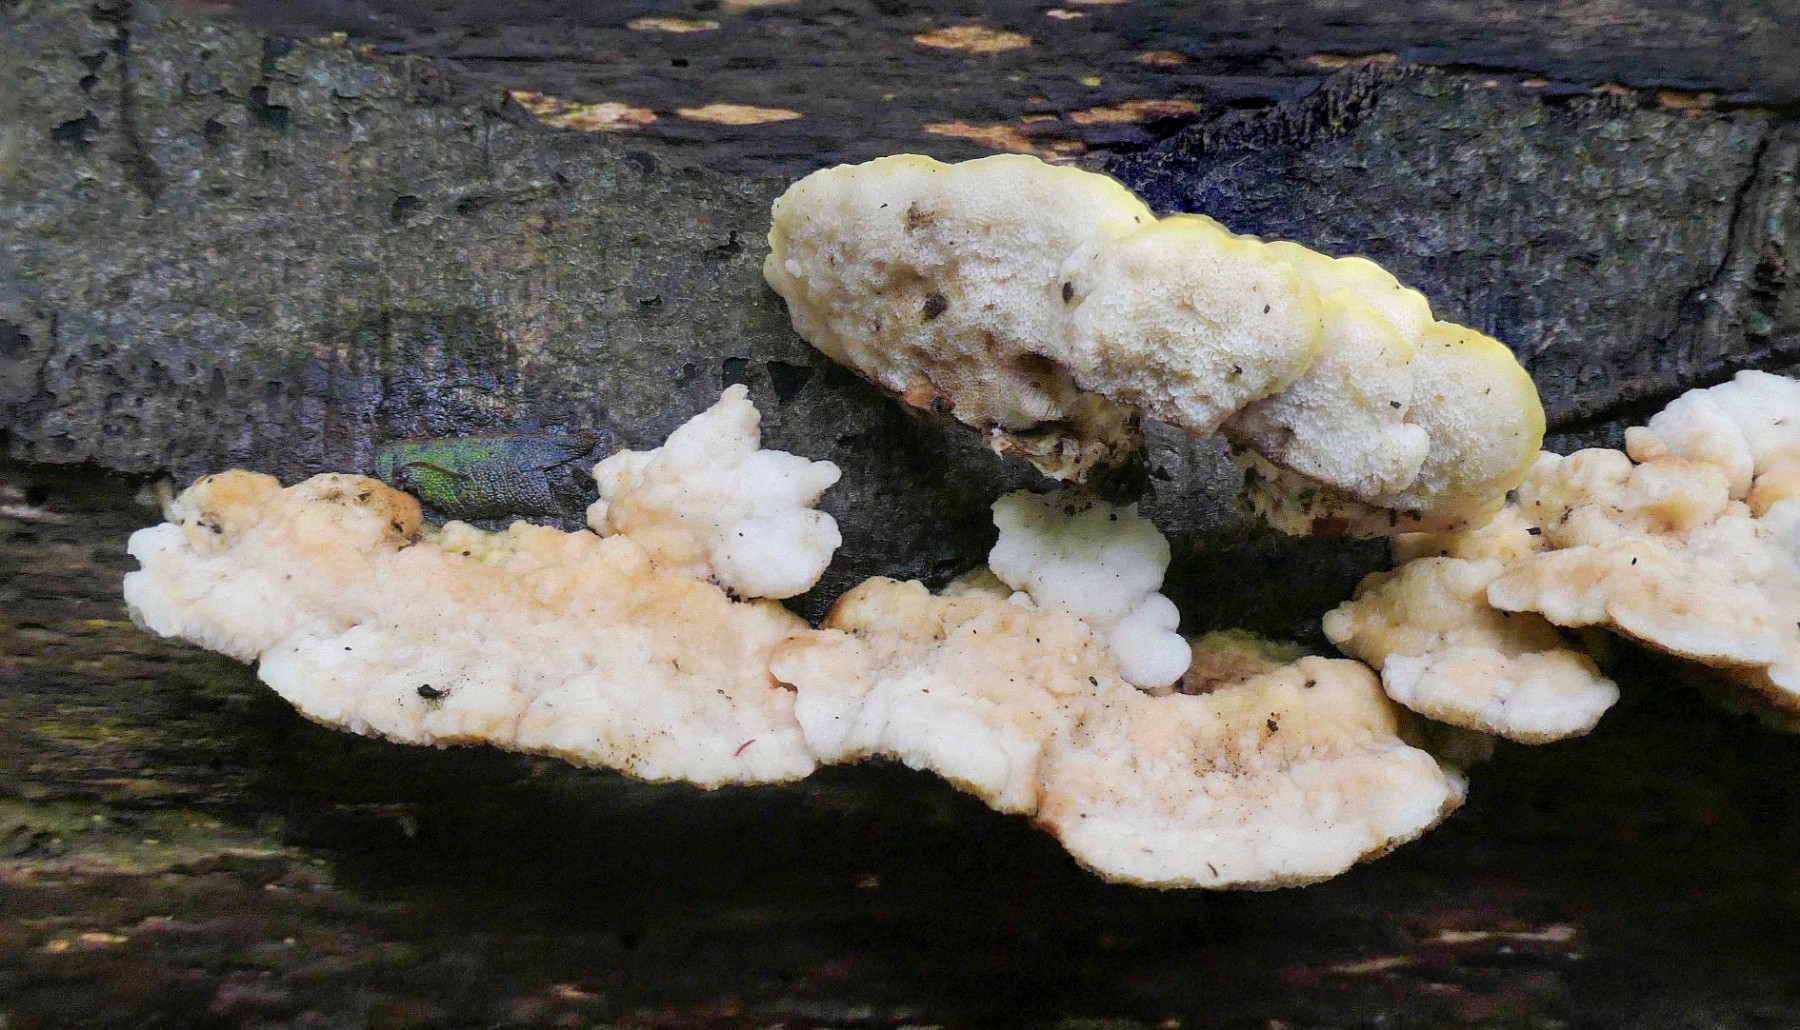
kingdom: Fungi
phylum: Basidiomycota
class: Agaricomycetes
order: Polyporales
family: Steccherinaceae
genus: Antrodiella
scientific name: Antrodiella serpula
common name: gulrandet elastikporesvamp
